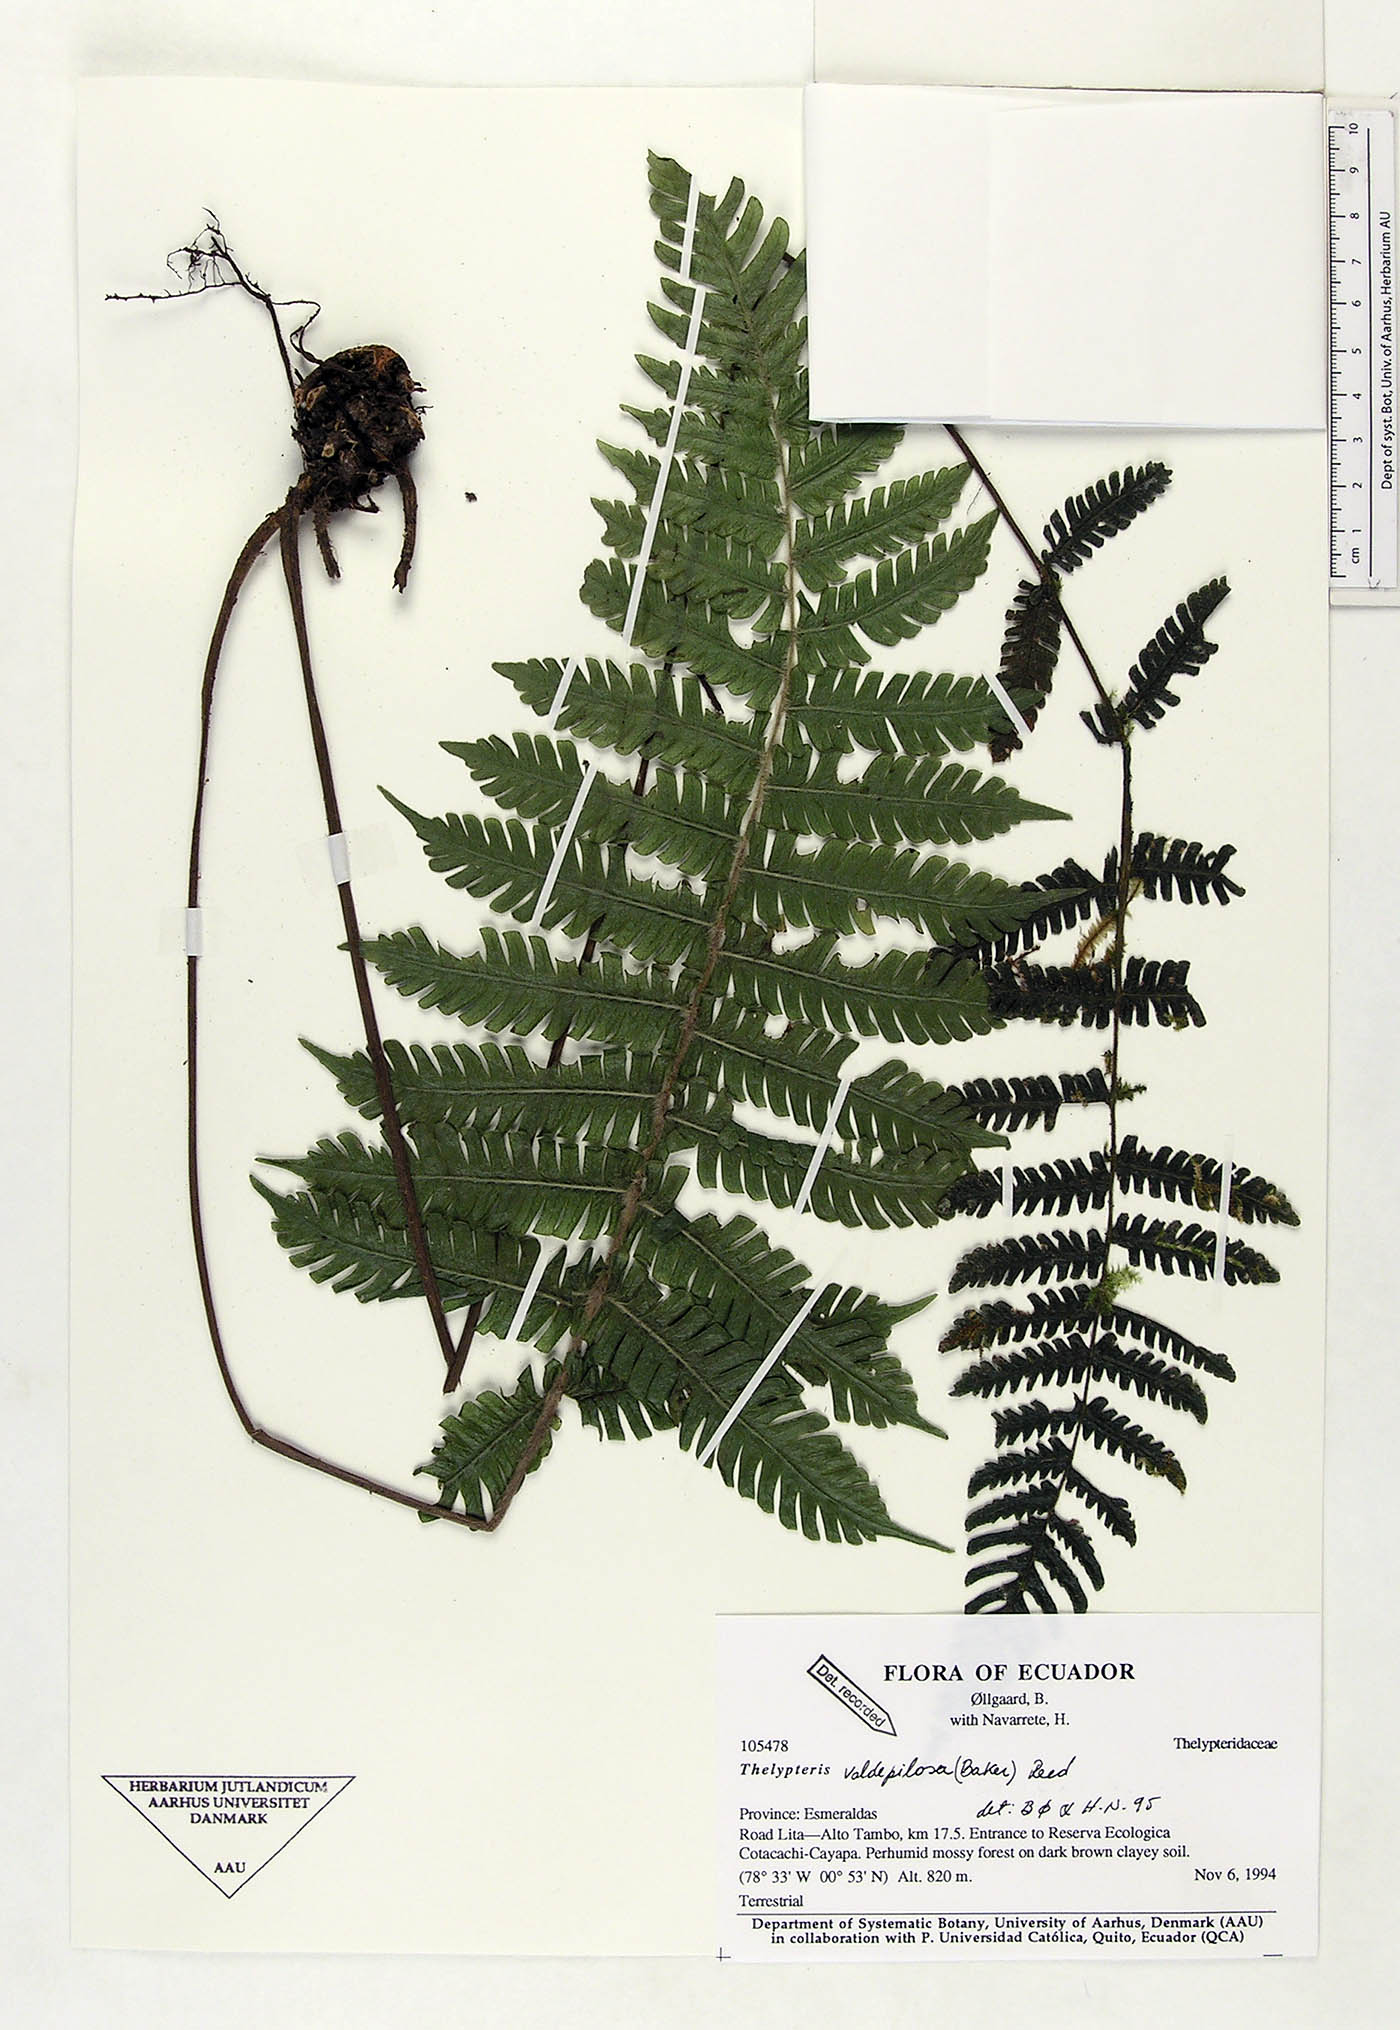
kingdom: Plantae
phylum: Tracheophyta
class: Polypodiopsida
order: Polypodiales
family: Thelypteridaceae
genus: Steiropteris
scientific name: Steiropteris valdepilosa
